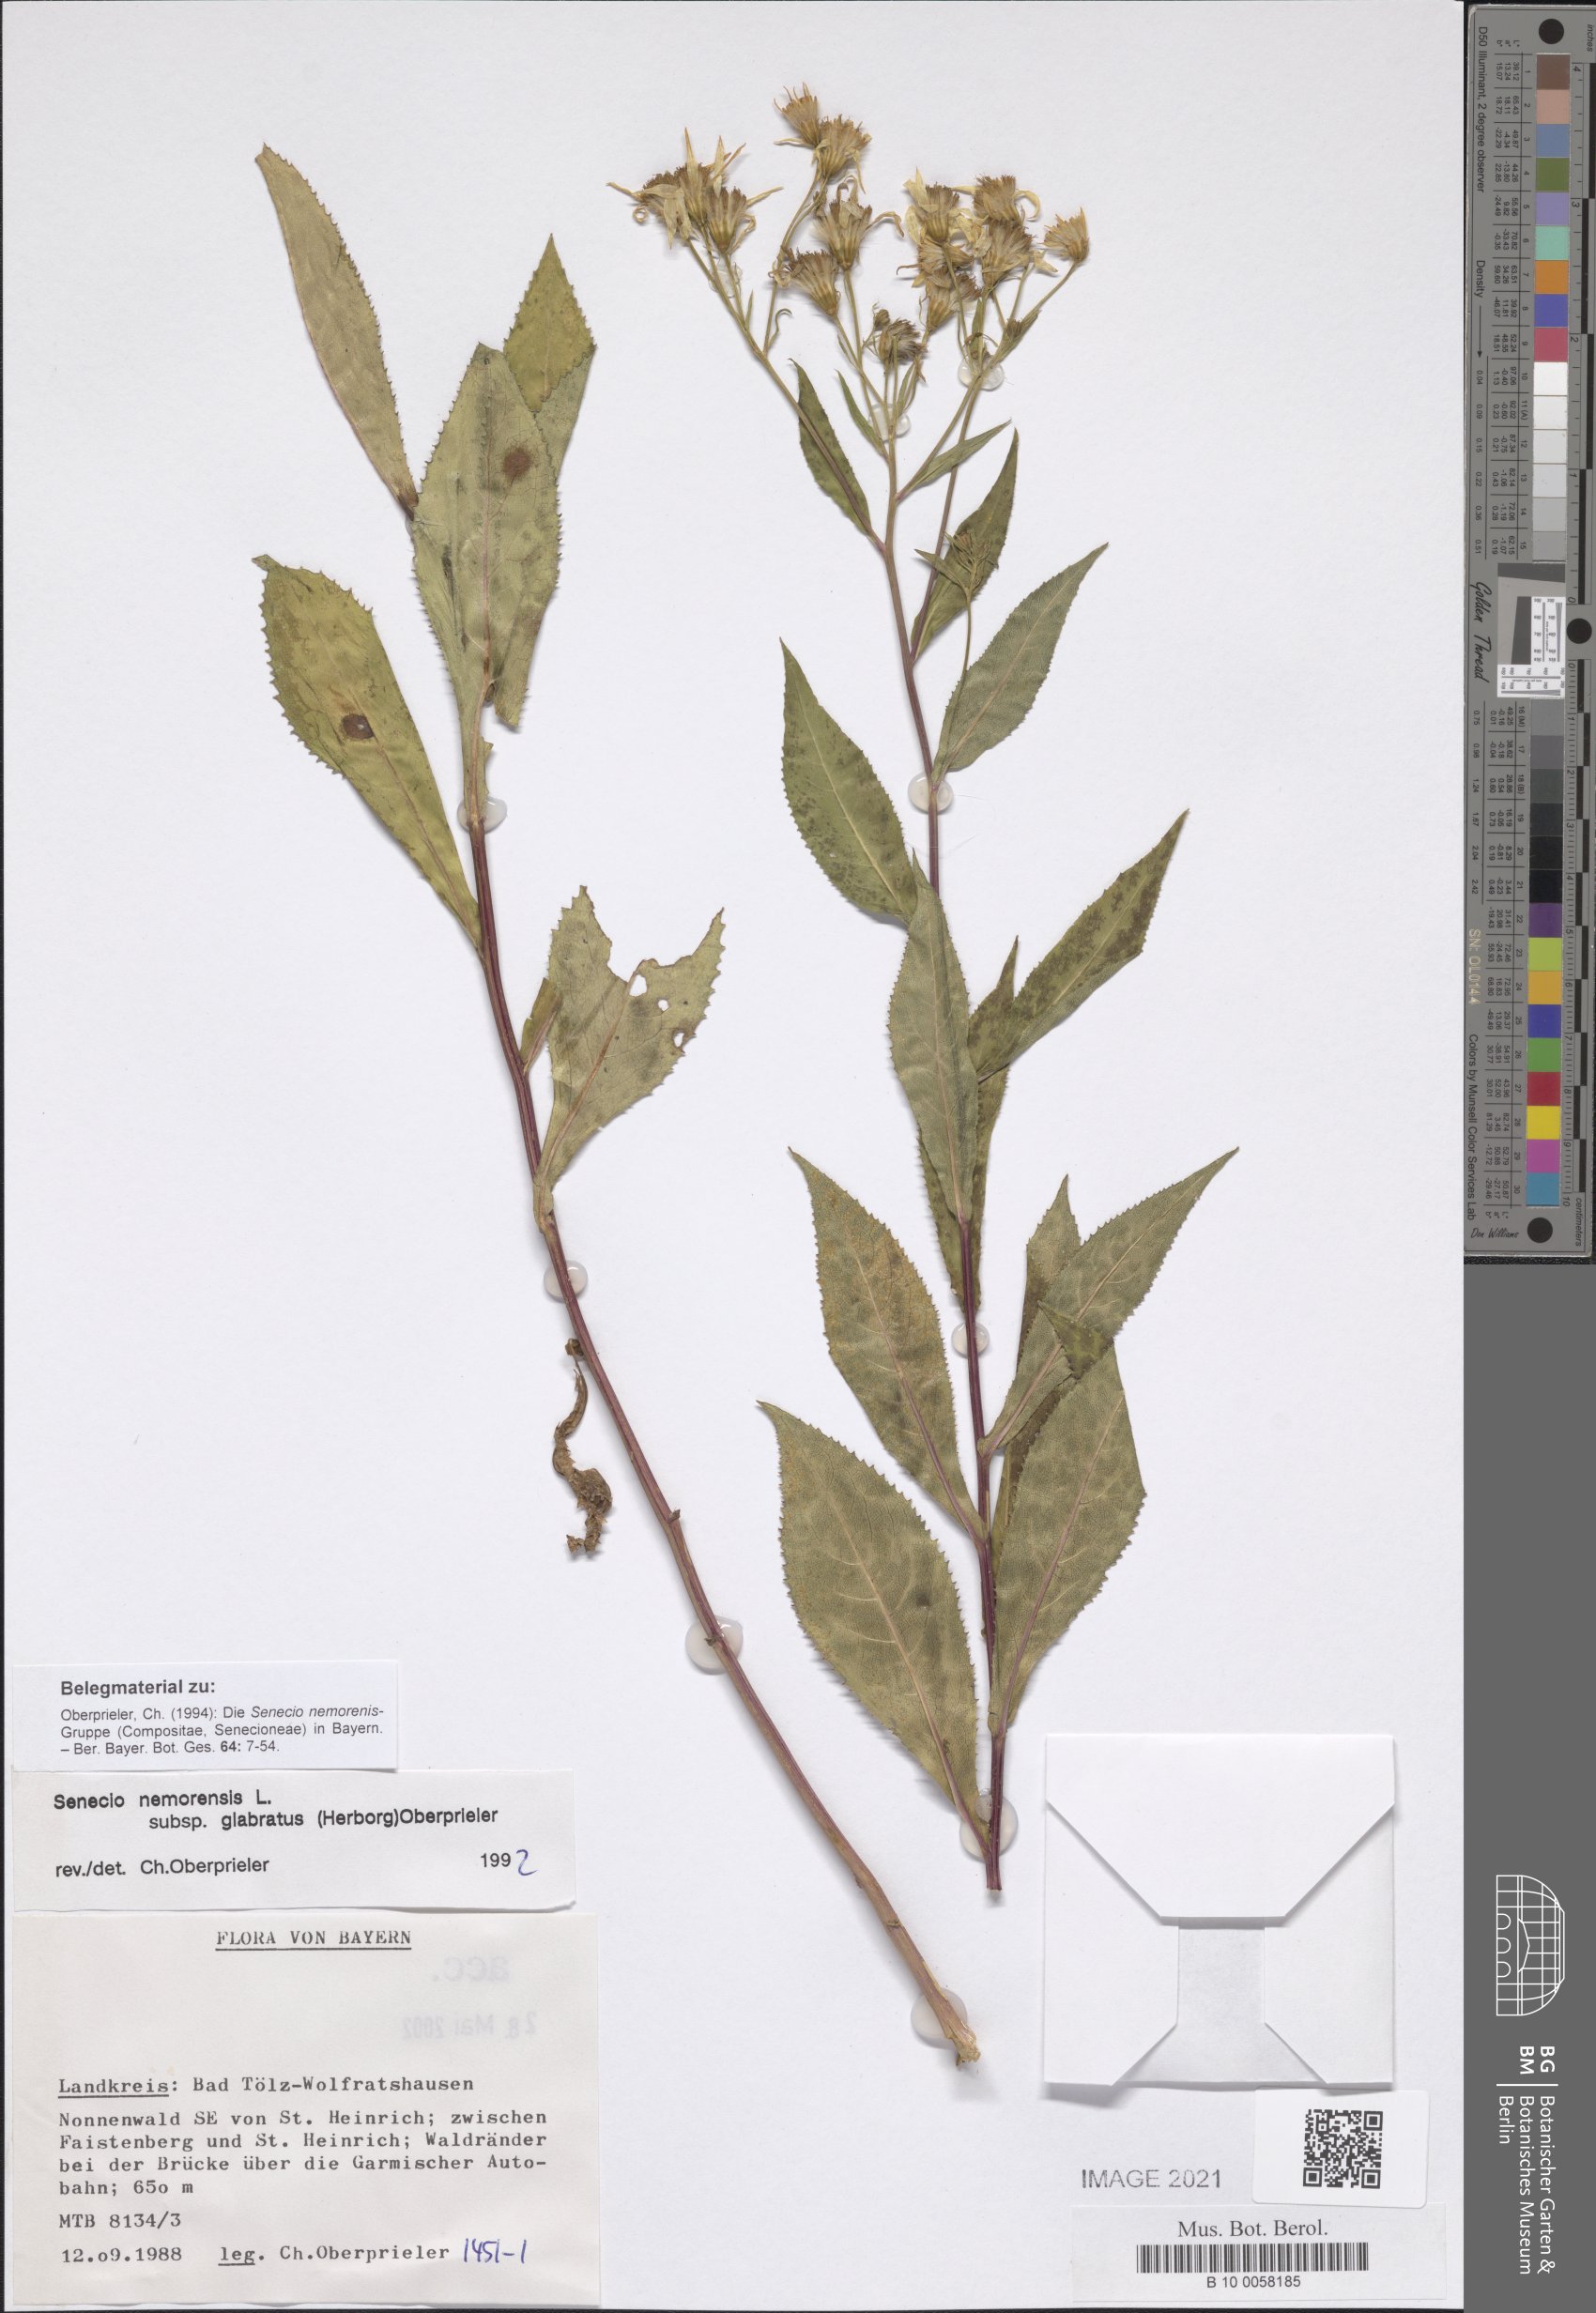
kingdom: Plantae
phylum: Tracheophyta
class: Magnoliopsida
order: Asterales
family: Asteraceae
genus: Senecio
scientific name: Senecio germanicus
